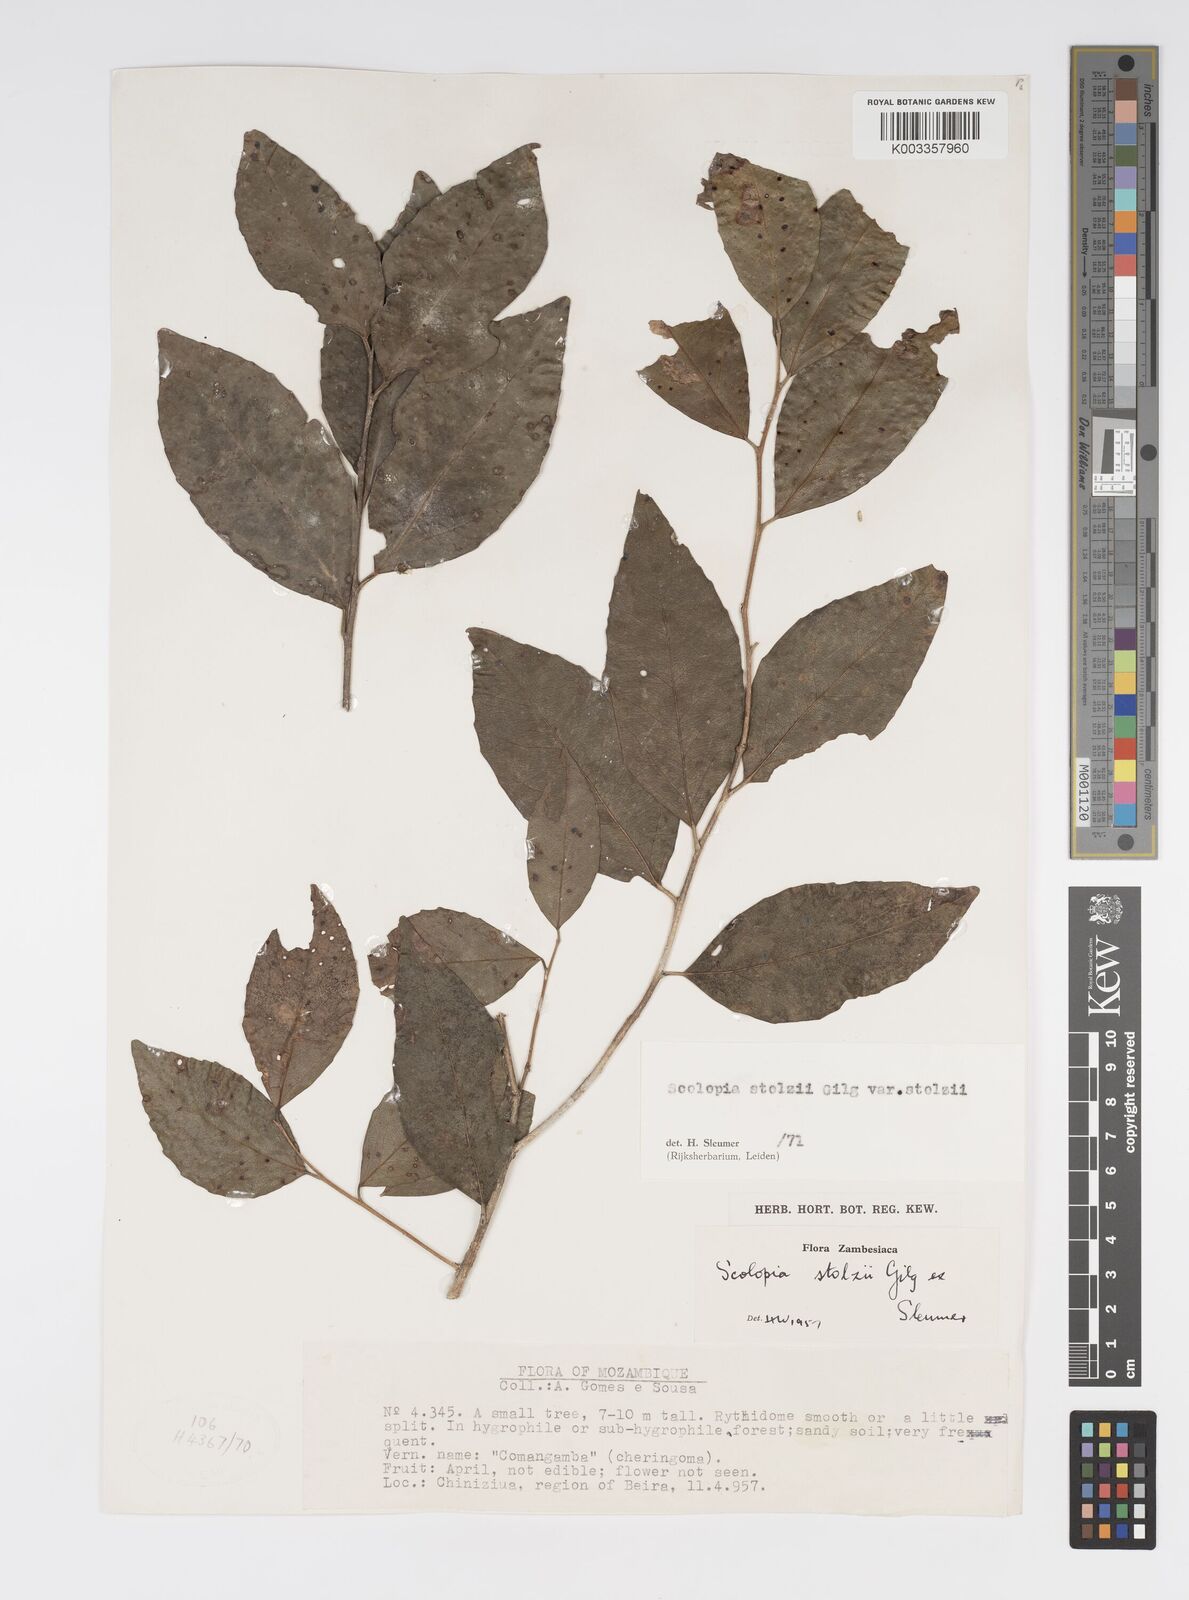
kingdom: Plantae
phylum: Tracheophyta
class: Magnoliopsida
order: Malpighiales
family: Salicaceae
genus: Scolopia
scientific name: Scolopia stolzii
